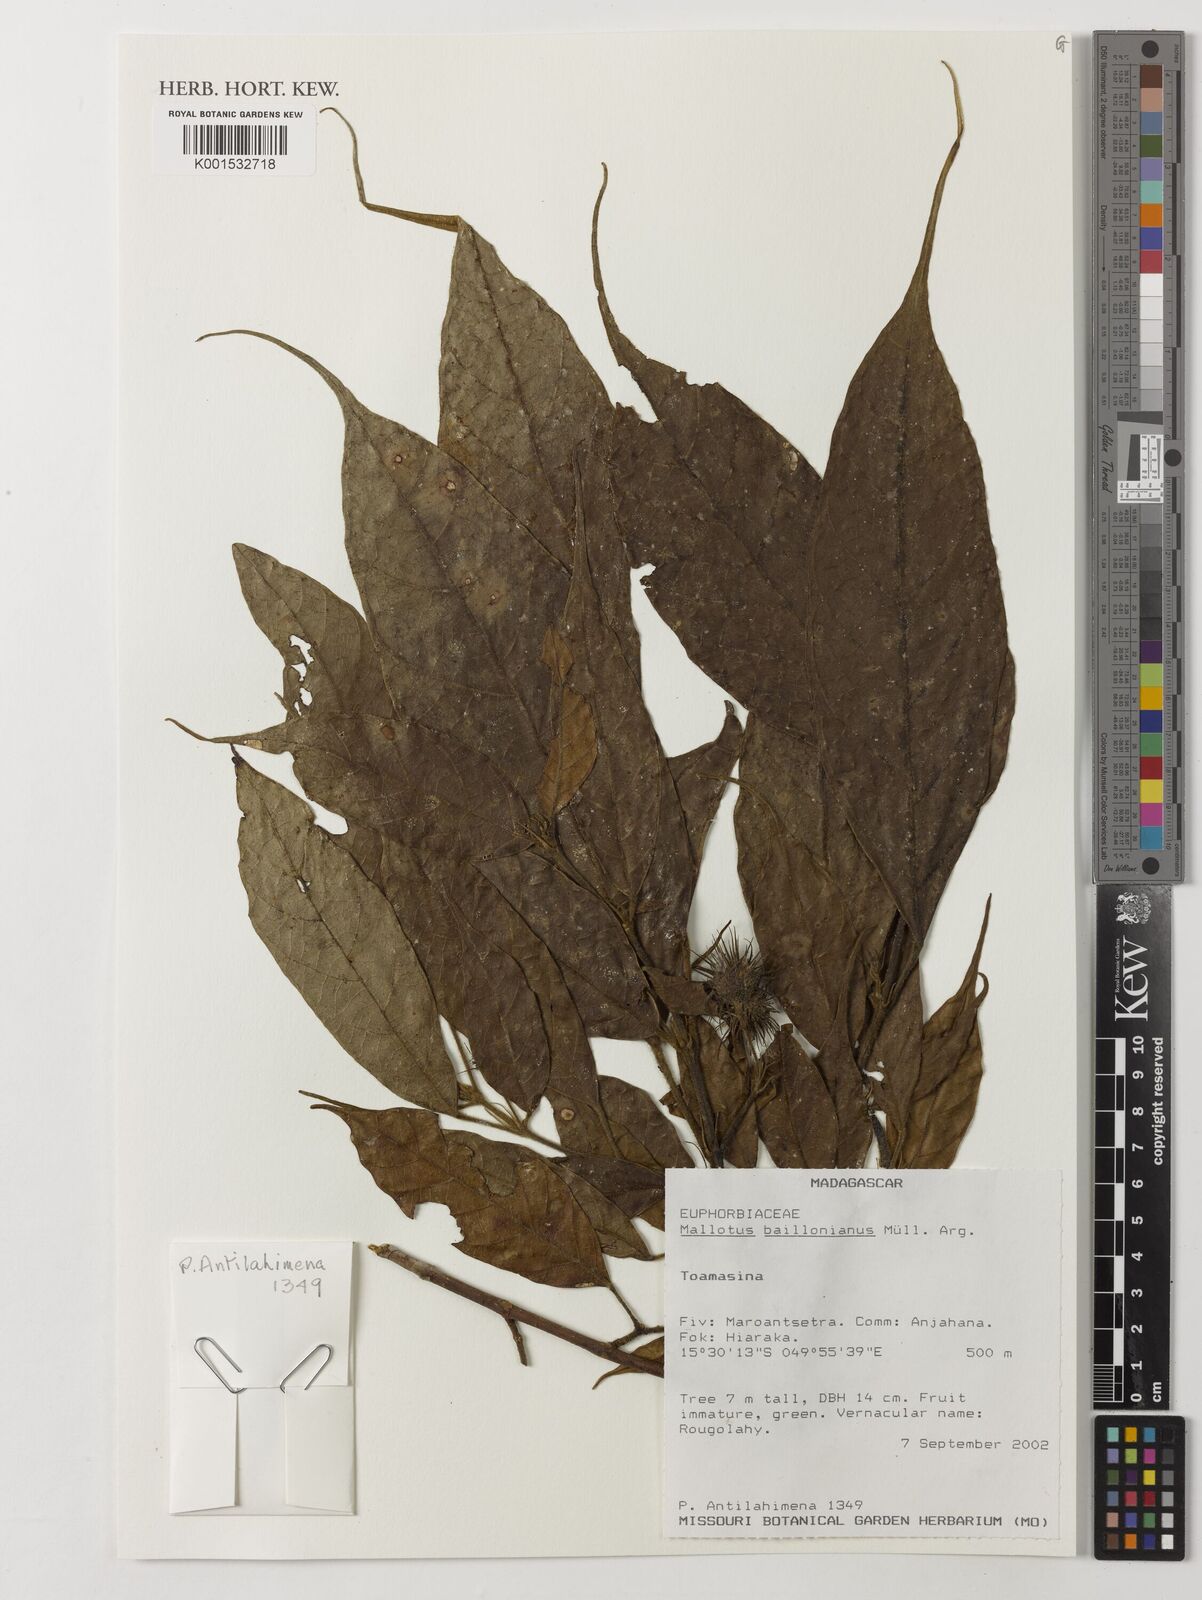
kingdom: Plantae
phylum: Tracheophyta
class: Magnoliopsida
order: Malpighiales
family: Euphorbiaceae
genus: Hancea
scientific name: Hancea acuminata
